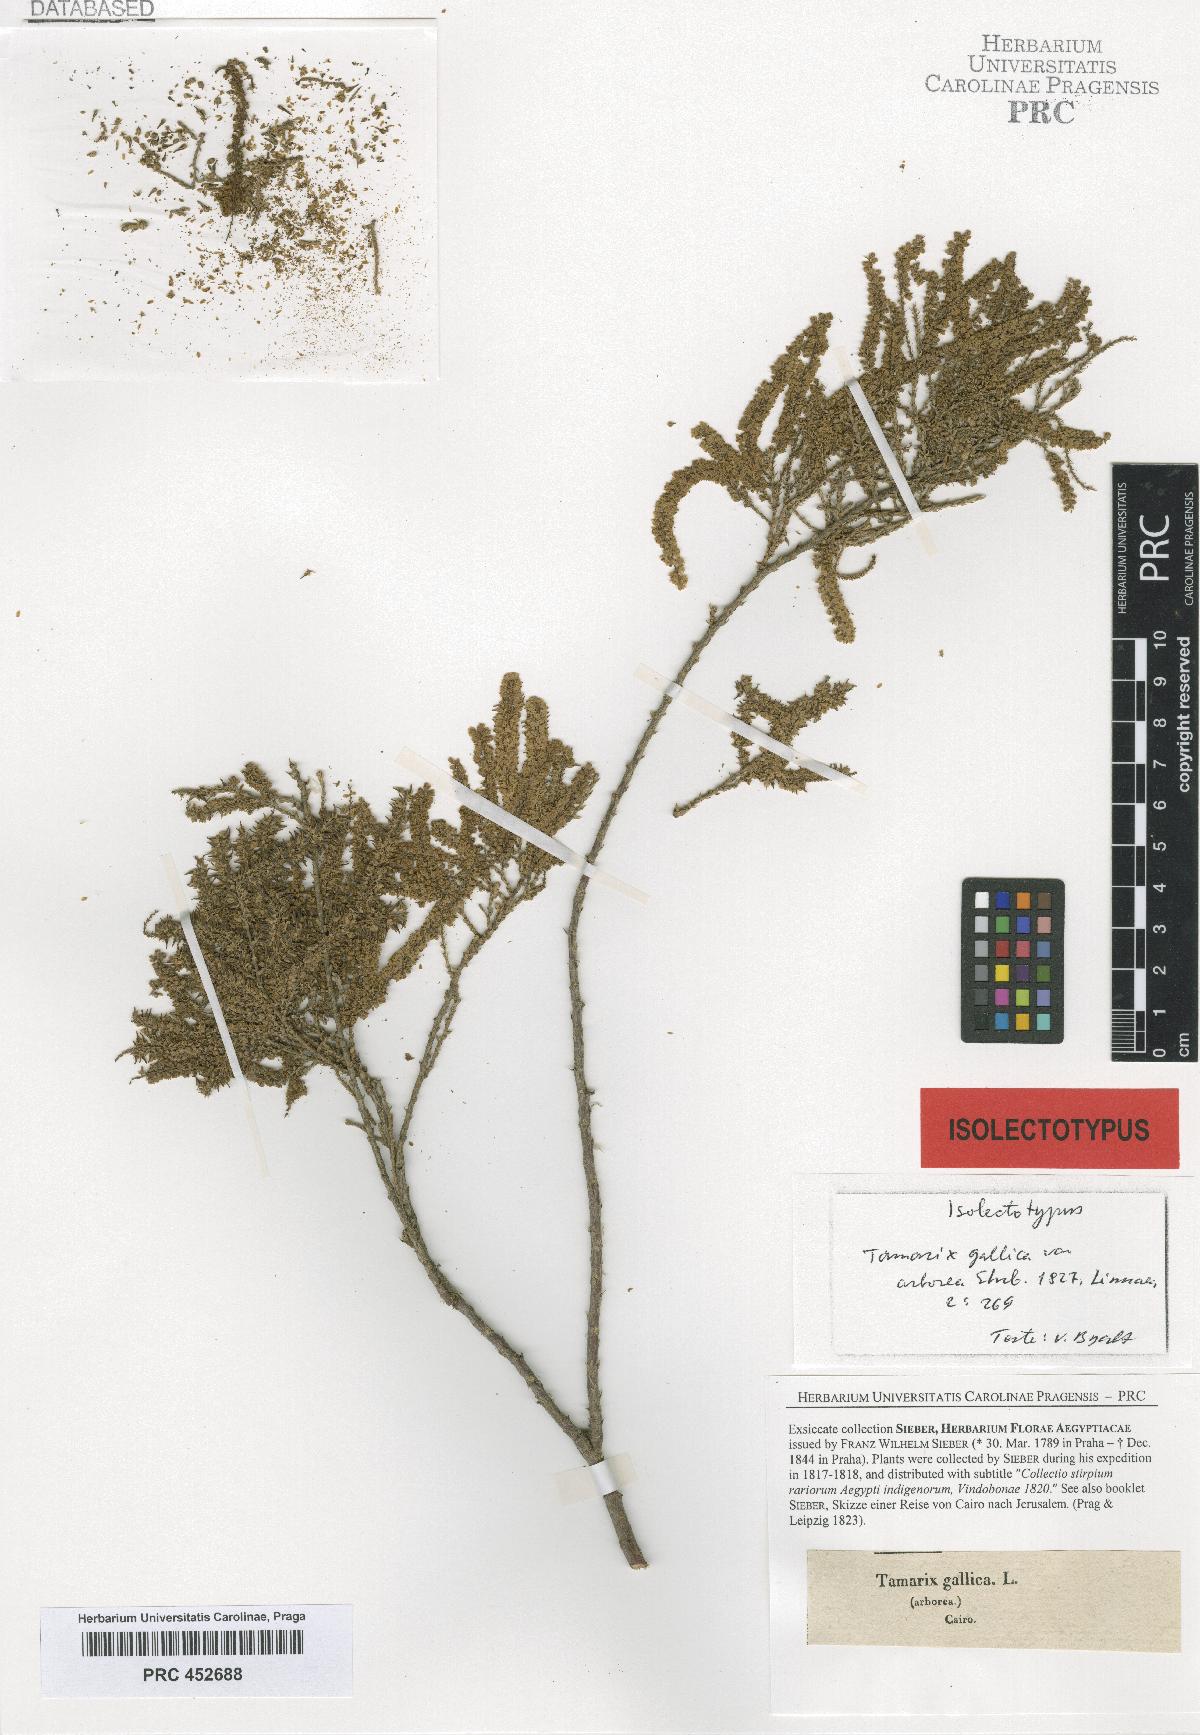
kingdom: Plantae
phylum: Tracheophyta
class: Magnoliopsida
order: Caryophyllales
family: Tamaricaceae
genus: Tamarix
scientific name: Tamarix
